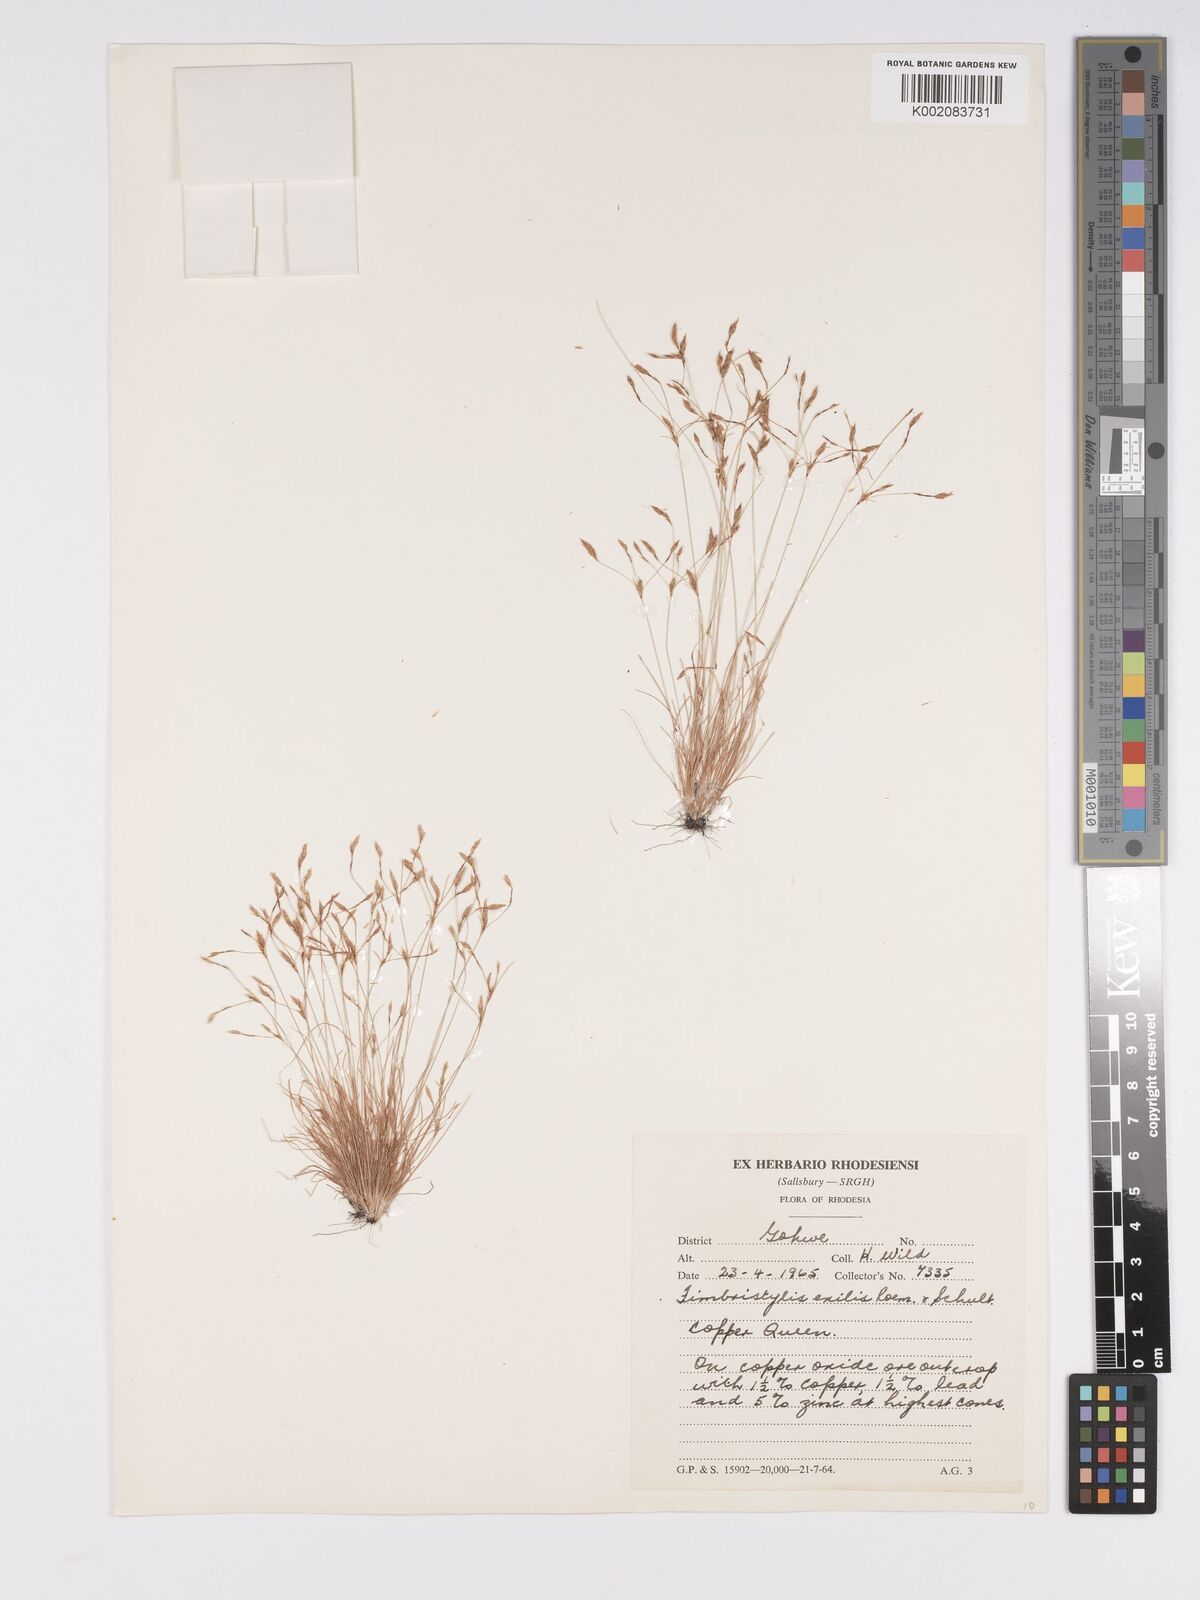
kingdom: Plantae
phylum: Tracheophyta
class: Liliopsida
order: Poales
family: Cyperaceae
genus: Bulbostylis
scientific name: Bulbostylis cupricola
